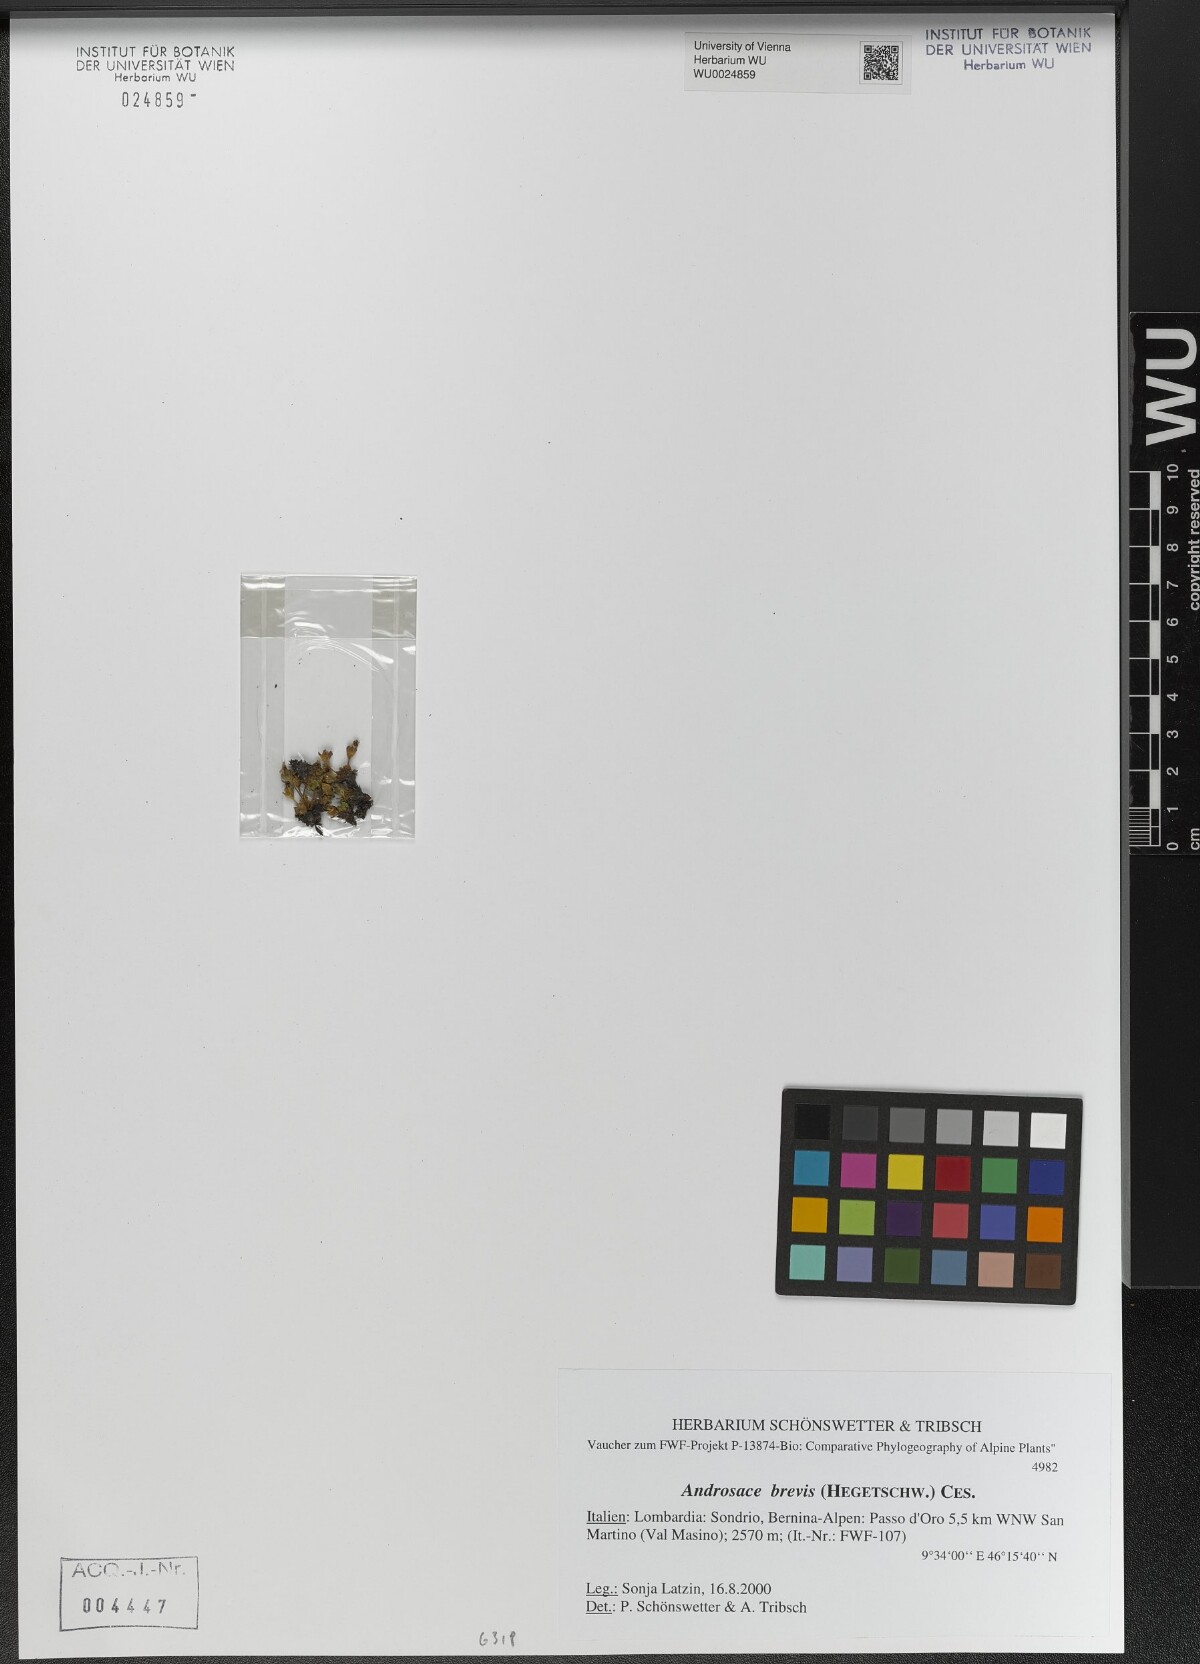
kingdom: Plantae
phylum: Tracheophyta
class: Magnoliopsida
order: Ericales
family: Primulaceae
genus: Androsace
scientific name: Androsace brevis
